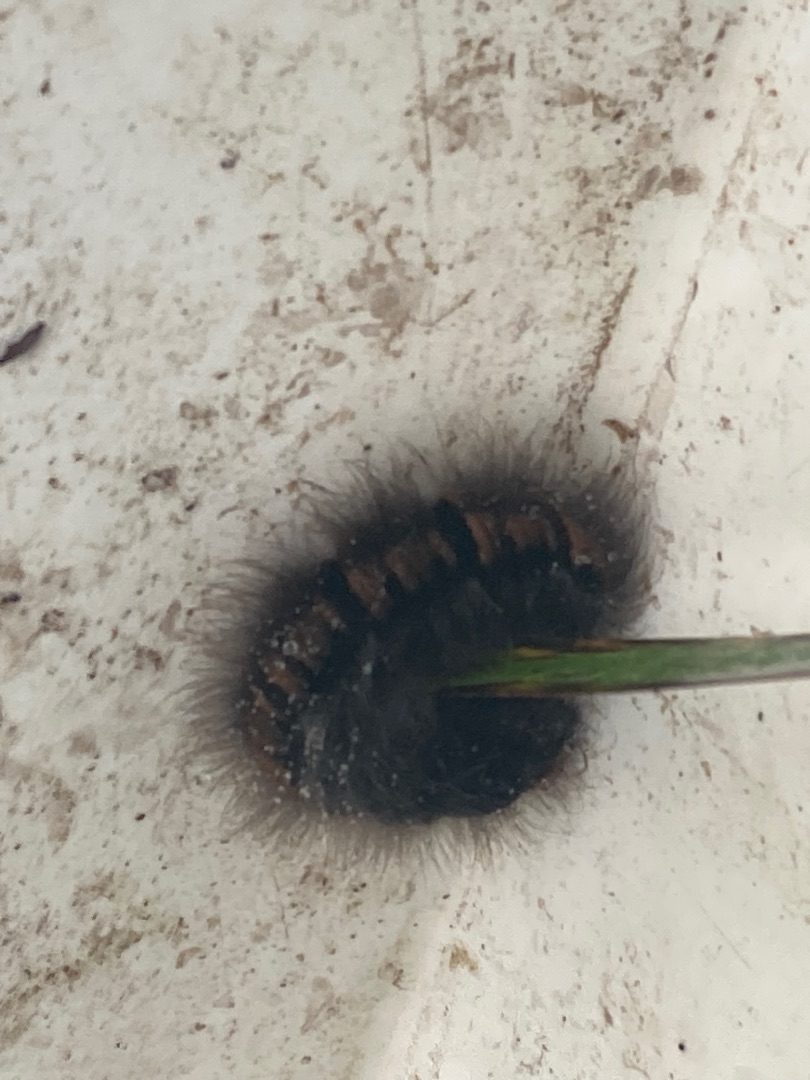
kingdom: Animalia
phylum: Arthropoda
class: Insecta
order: Lepidoptera
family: Lasiocampidae
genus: Macrothylacia
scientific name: Macrothylacia rubi
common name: Brombærspinder
